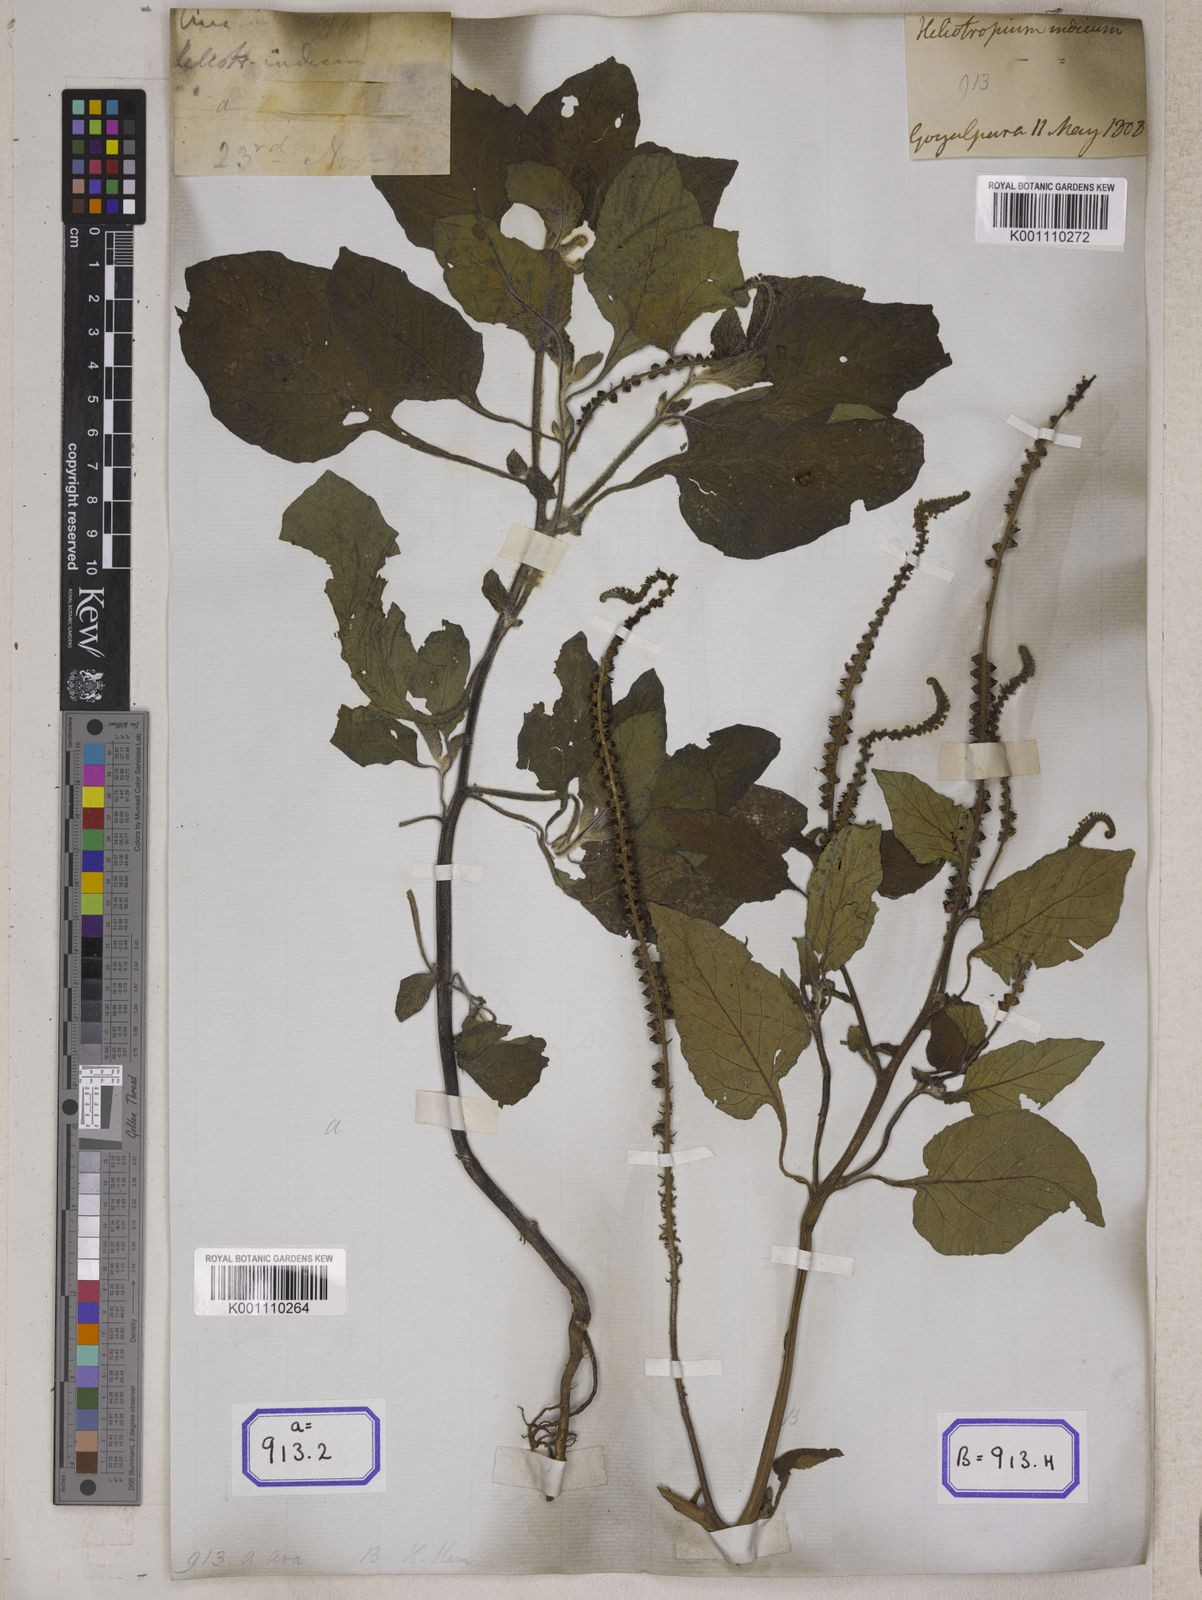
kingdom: Plantae
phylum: Tracheophyta
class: Magnoliopsida
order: Boraginales
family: Heliotropiaceae
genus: Heliotropium
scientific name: Heliotropium indicum
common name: Indian heliotrope
